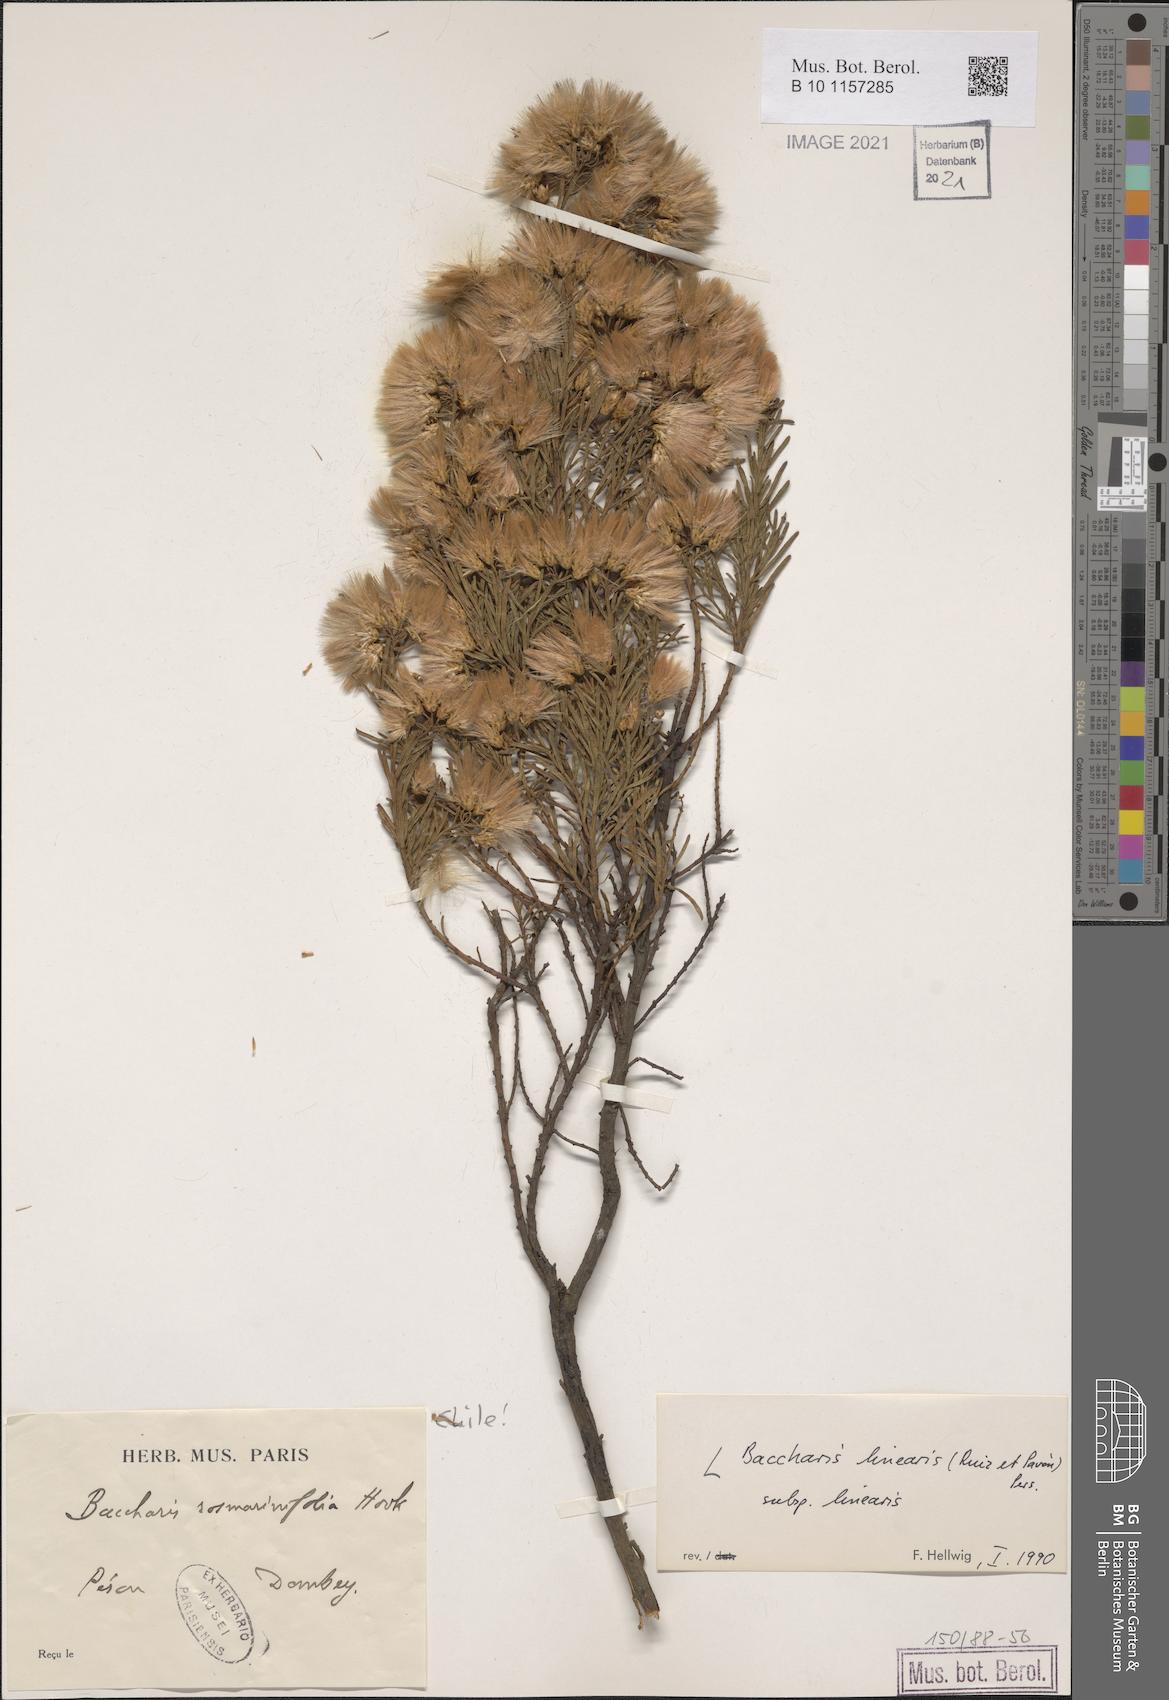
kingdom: Plantae
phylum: Tracheophyta
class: Magnoliopsida
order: Asterales
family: Asteraceae
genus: Baccharis
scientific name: Baccharis linearis
